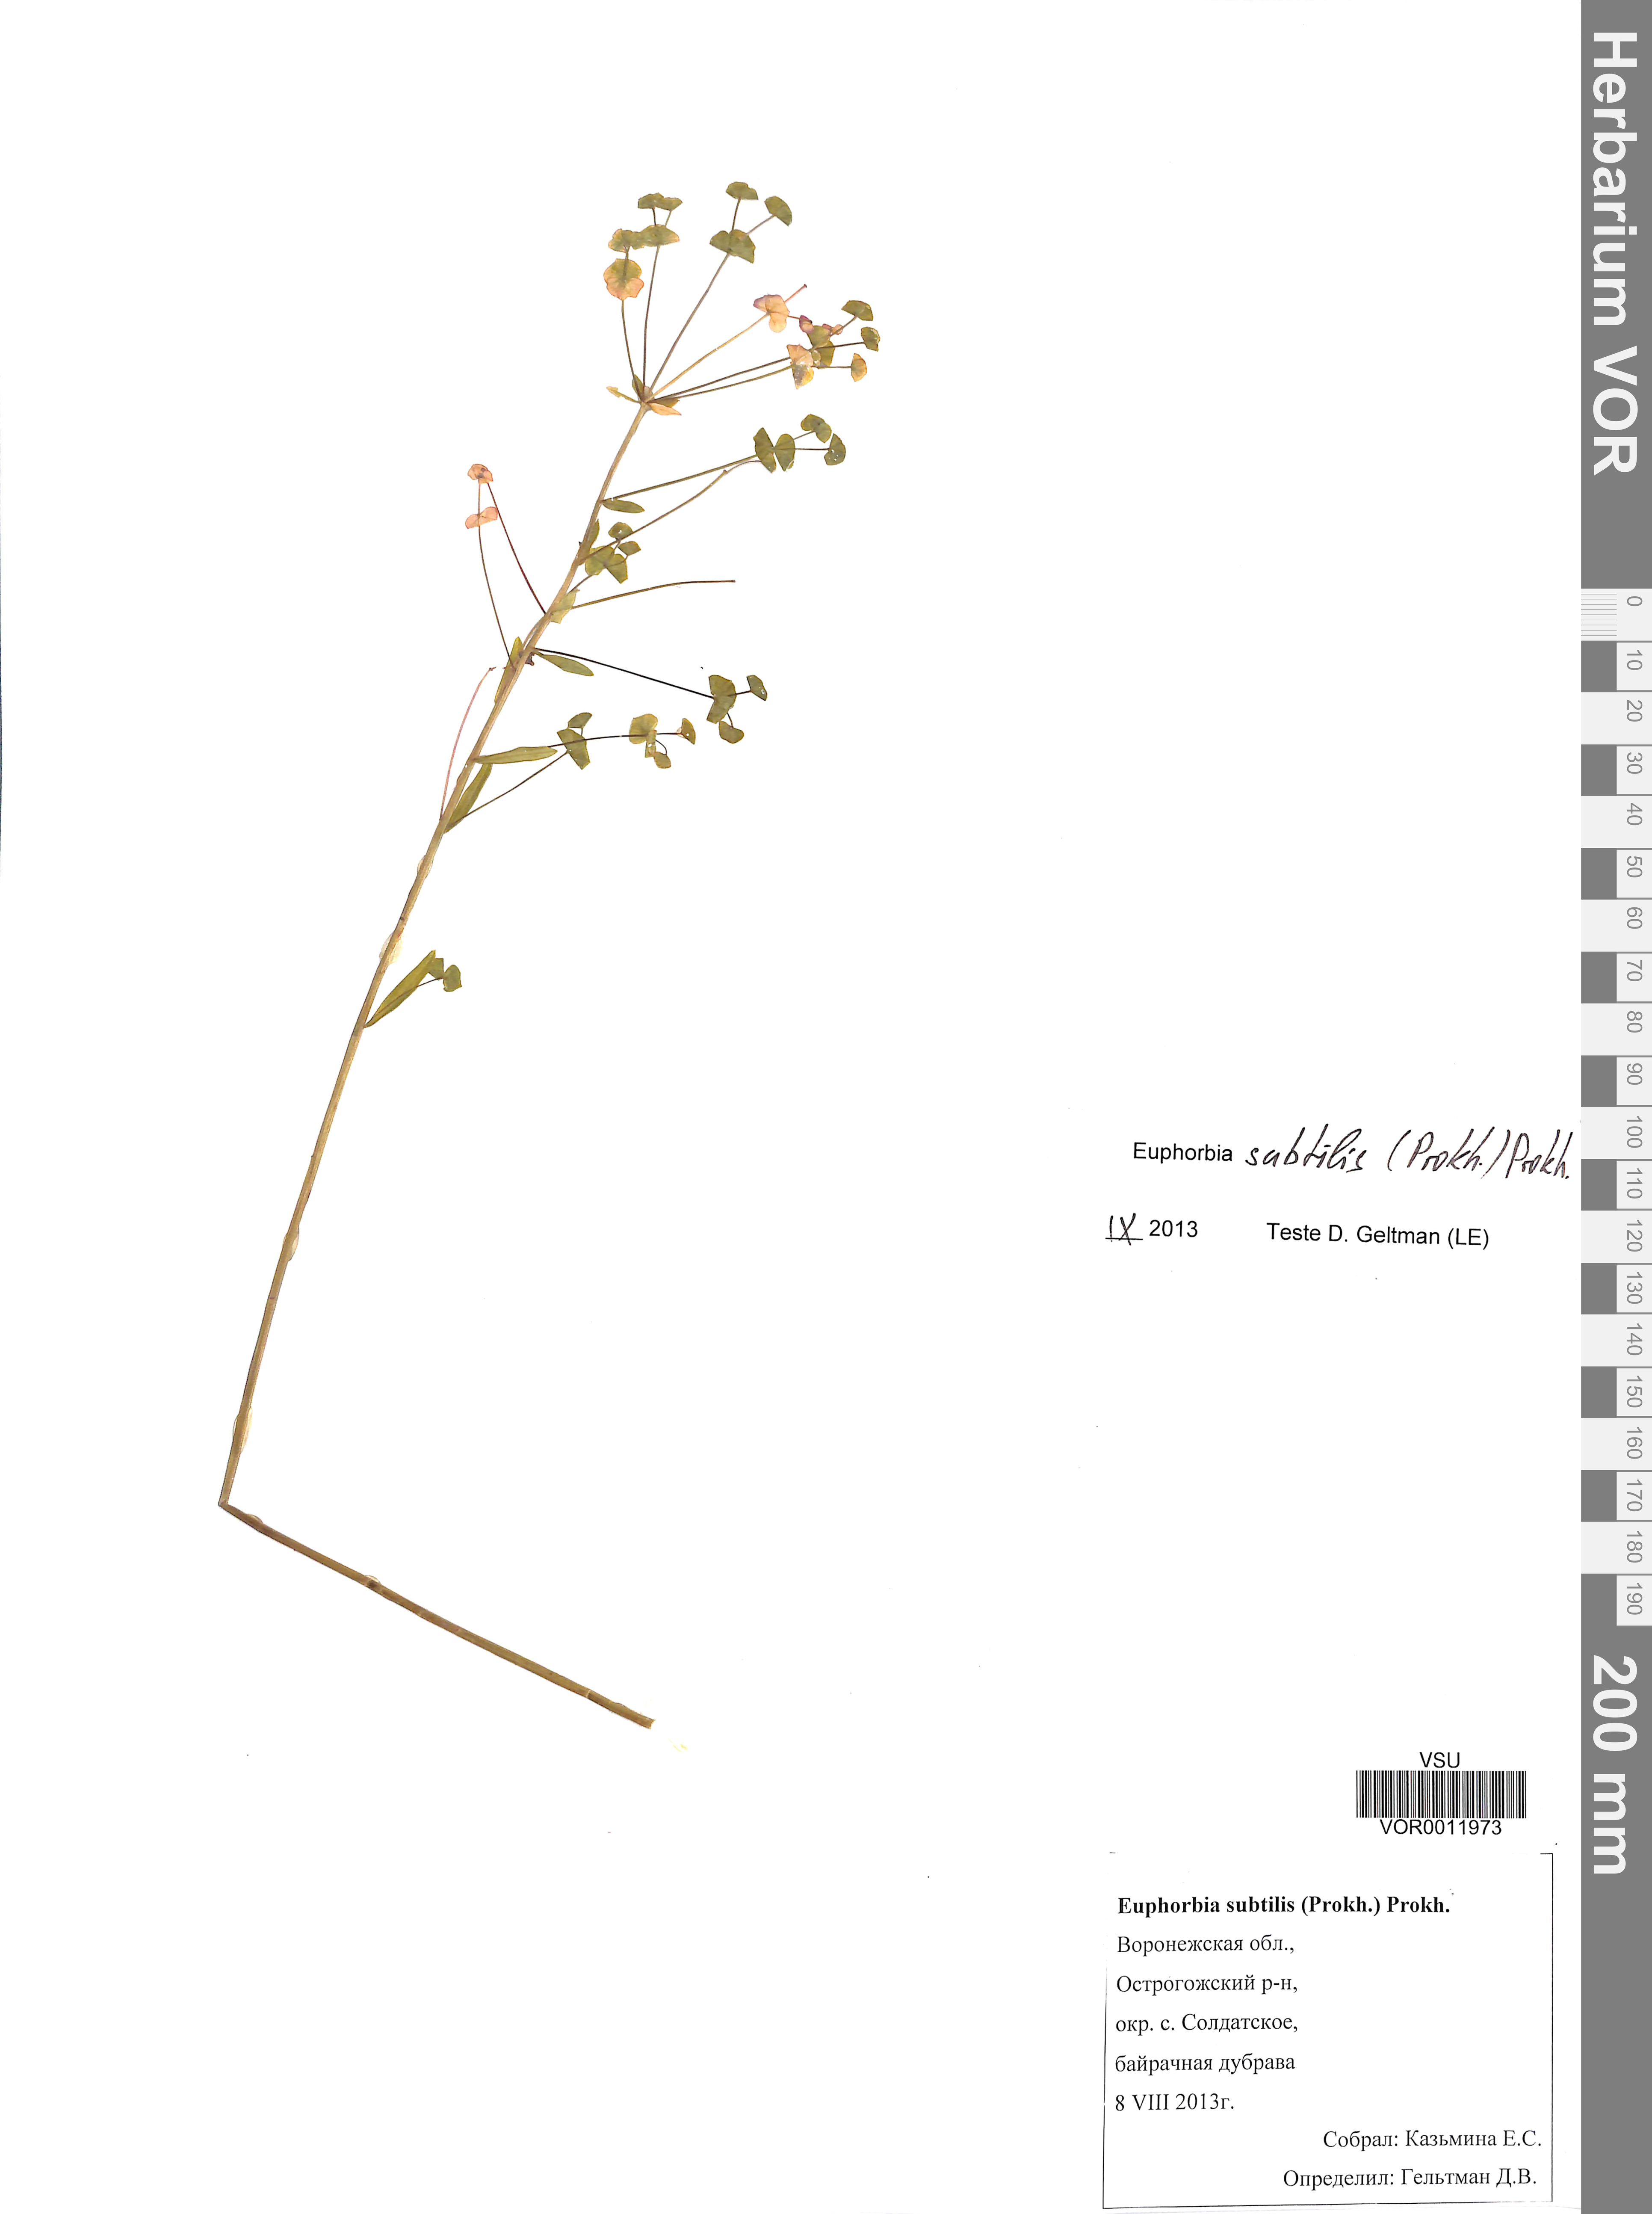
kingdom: Plantae
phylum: Tracheophyta
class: Magnoliopsida
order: Malpighiales
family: Euphorbiaceae
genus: Euphorbia
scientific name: Euphorbia microcarpa
